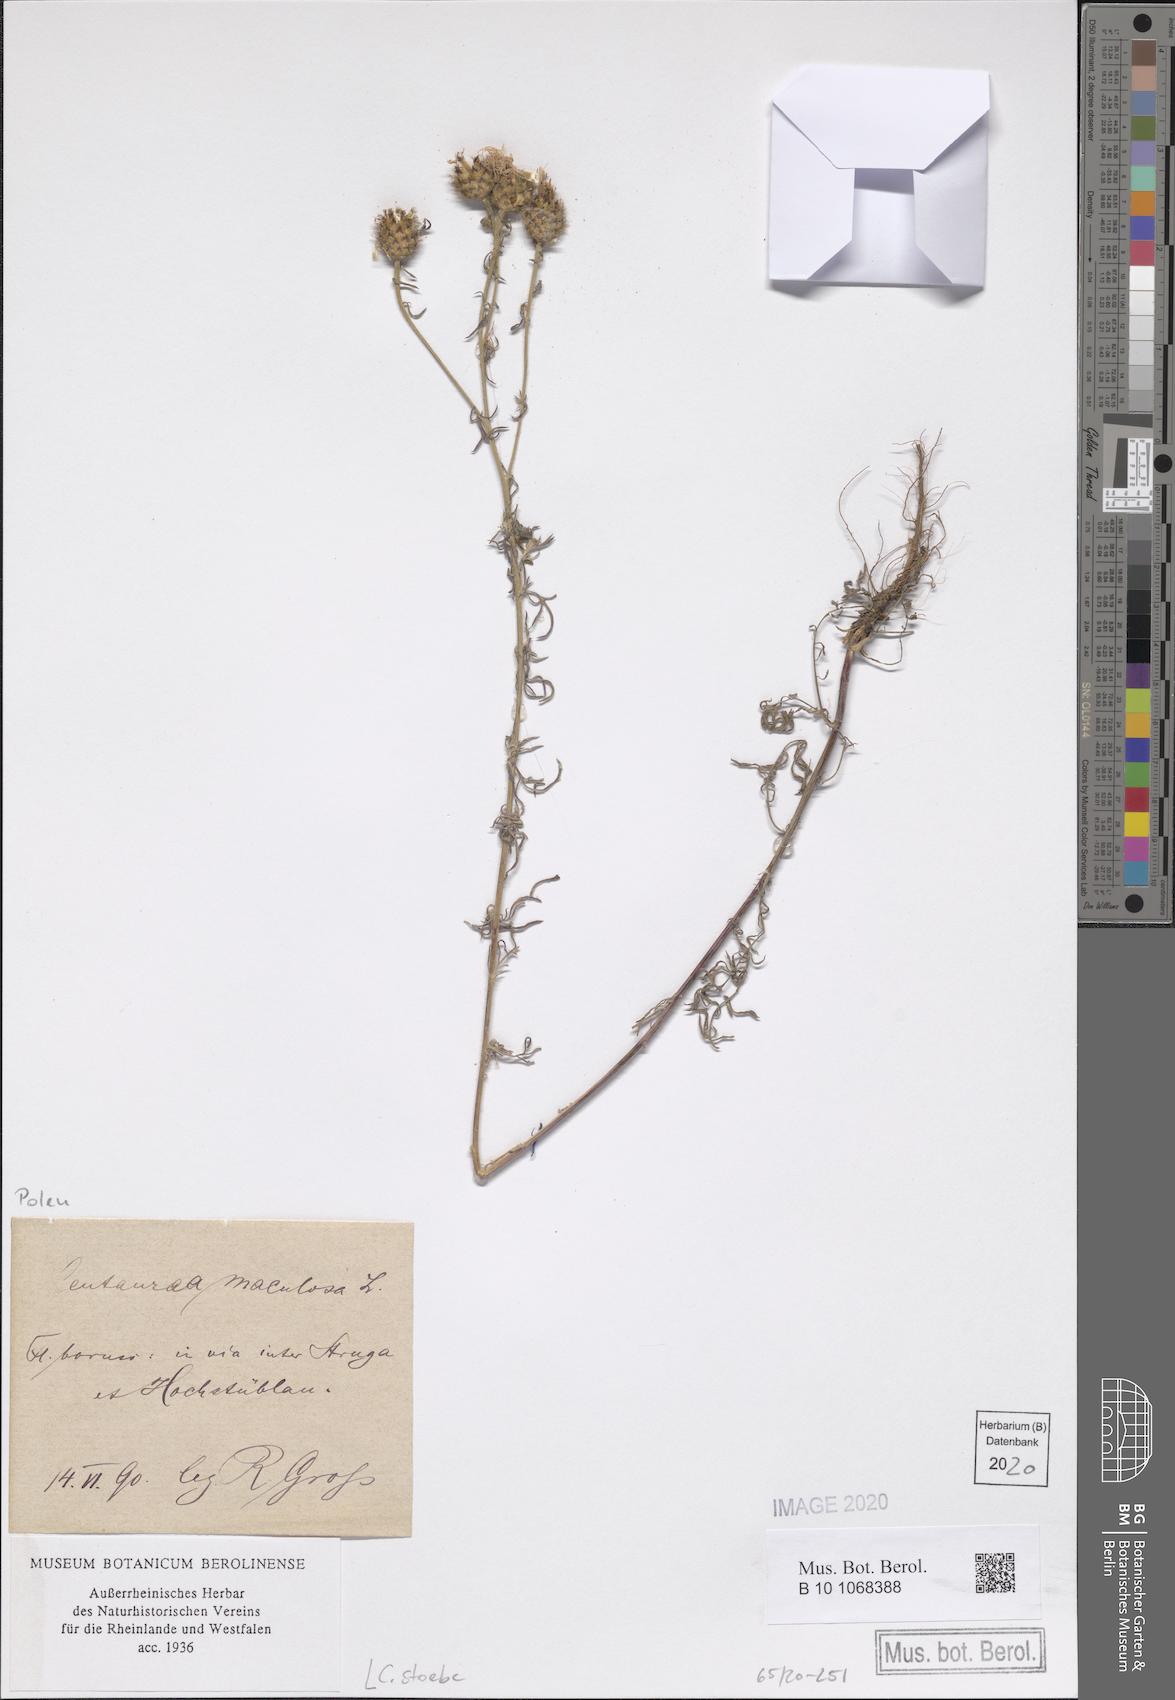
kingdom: Plantae
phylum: Tracheophyta
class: Magnoliopsida
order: Asterales
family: Asteraceae
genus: Centaurea
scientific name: Centaurea stoebe
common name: Spotted knapweed
